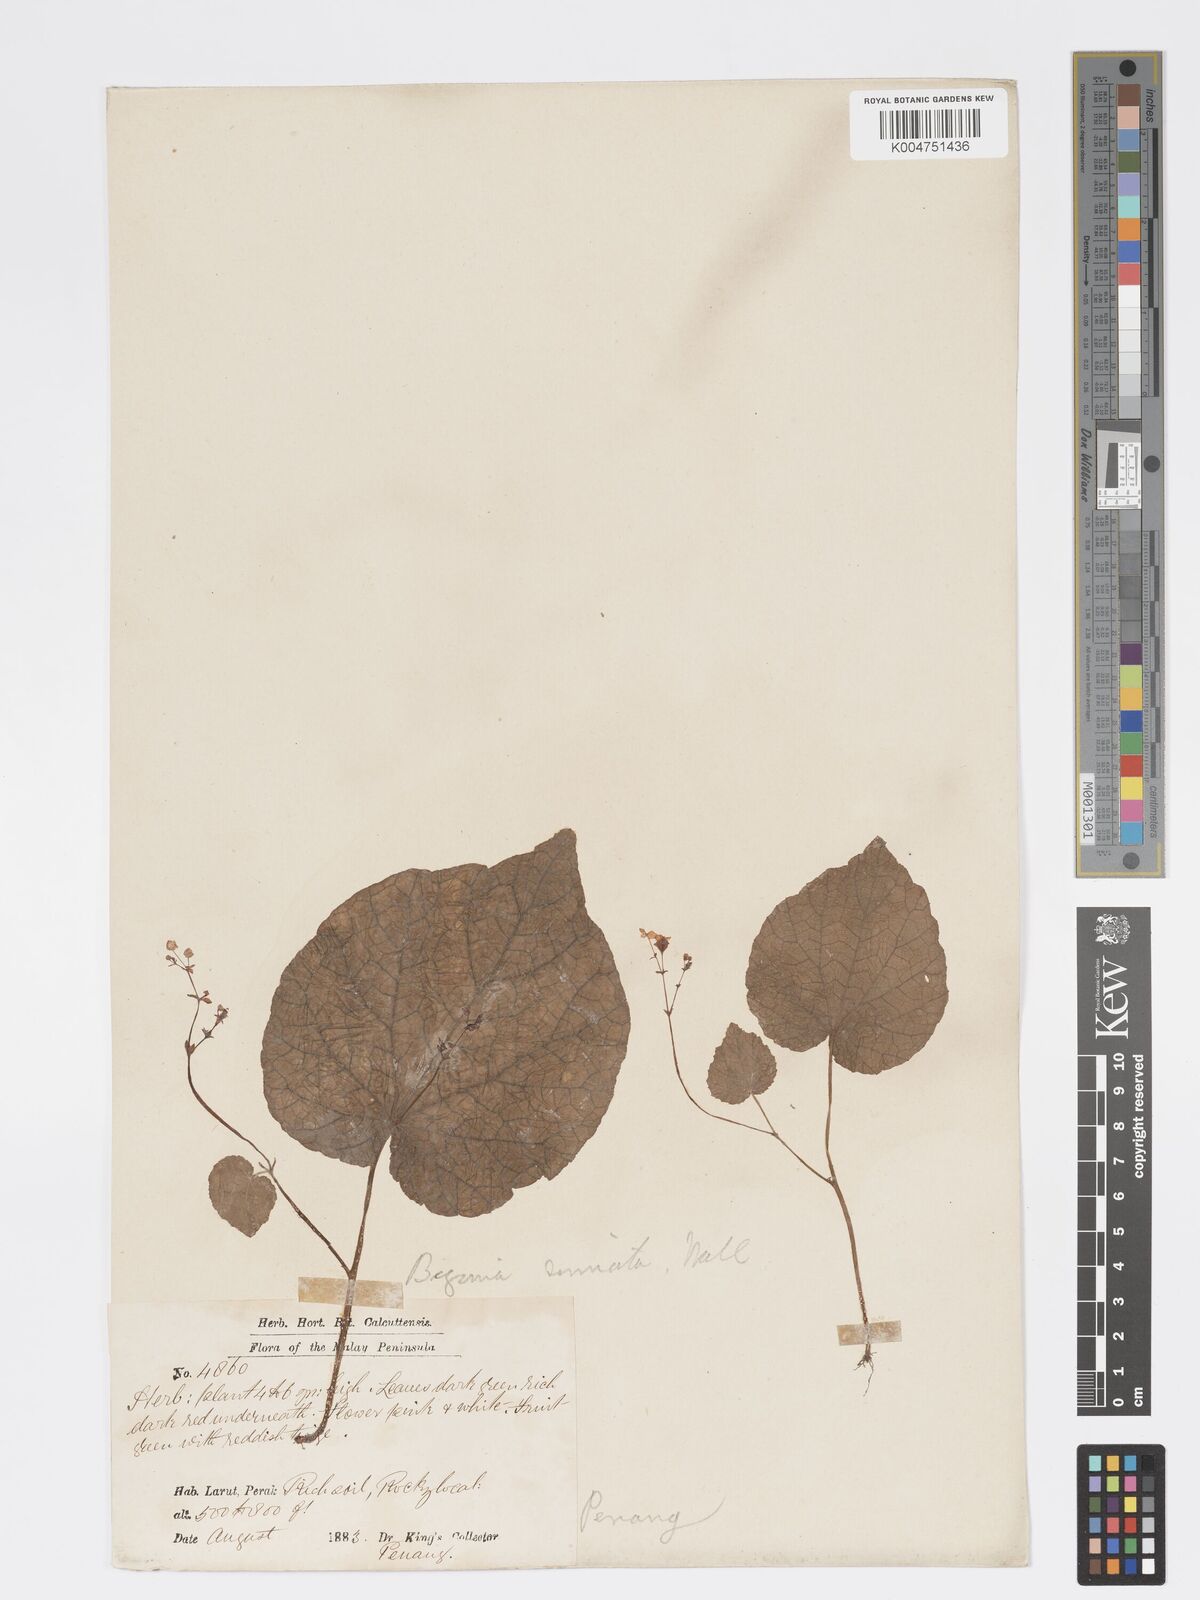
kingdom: Plantae
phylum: Tracheophyta
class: Magnoliopsida
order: Cucurbitales
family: Begoniaceae
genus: Begonia
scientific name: Begonia
